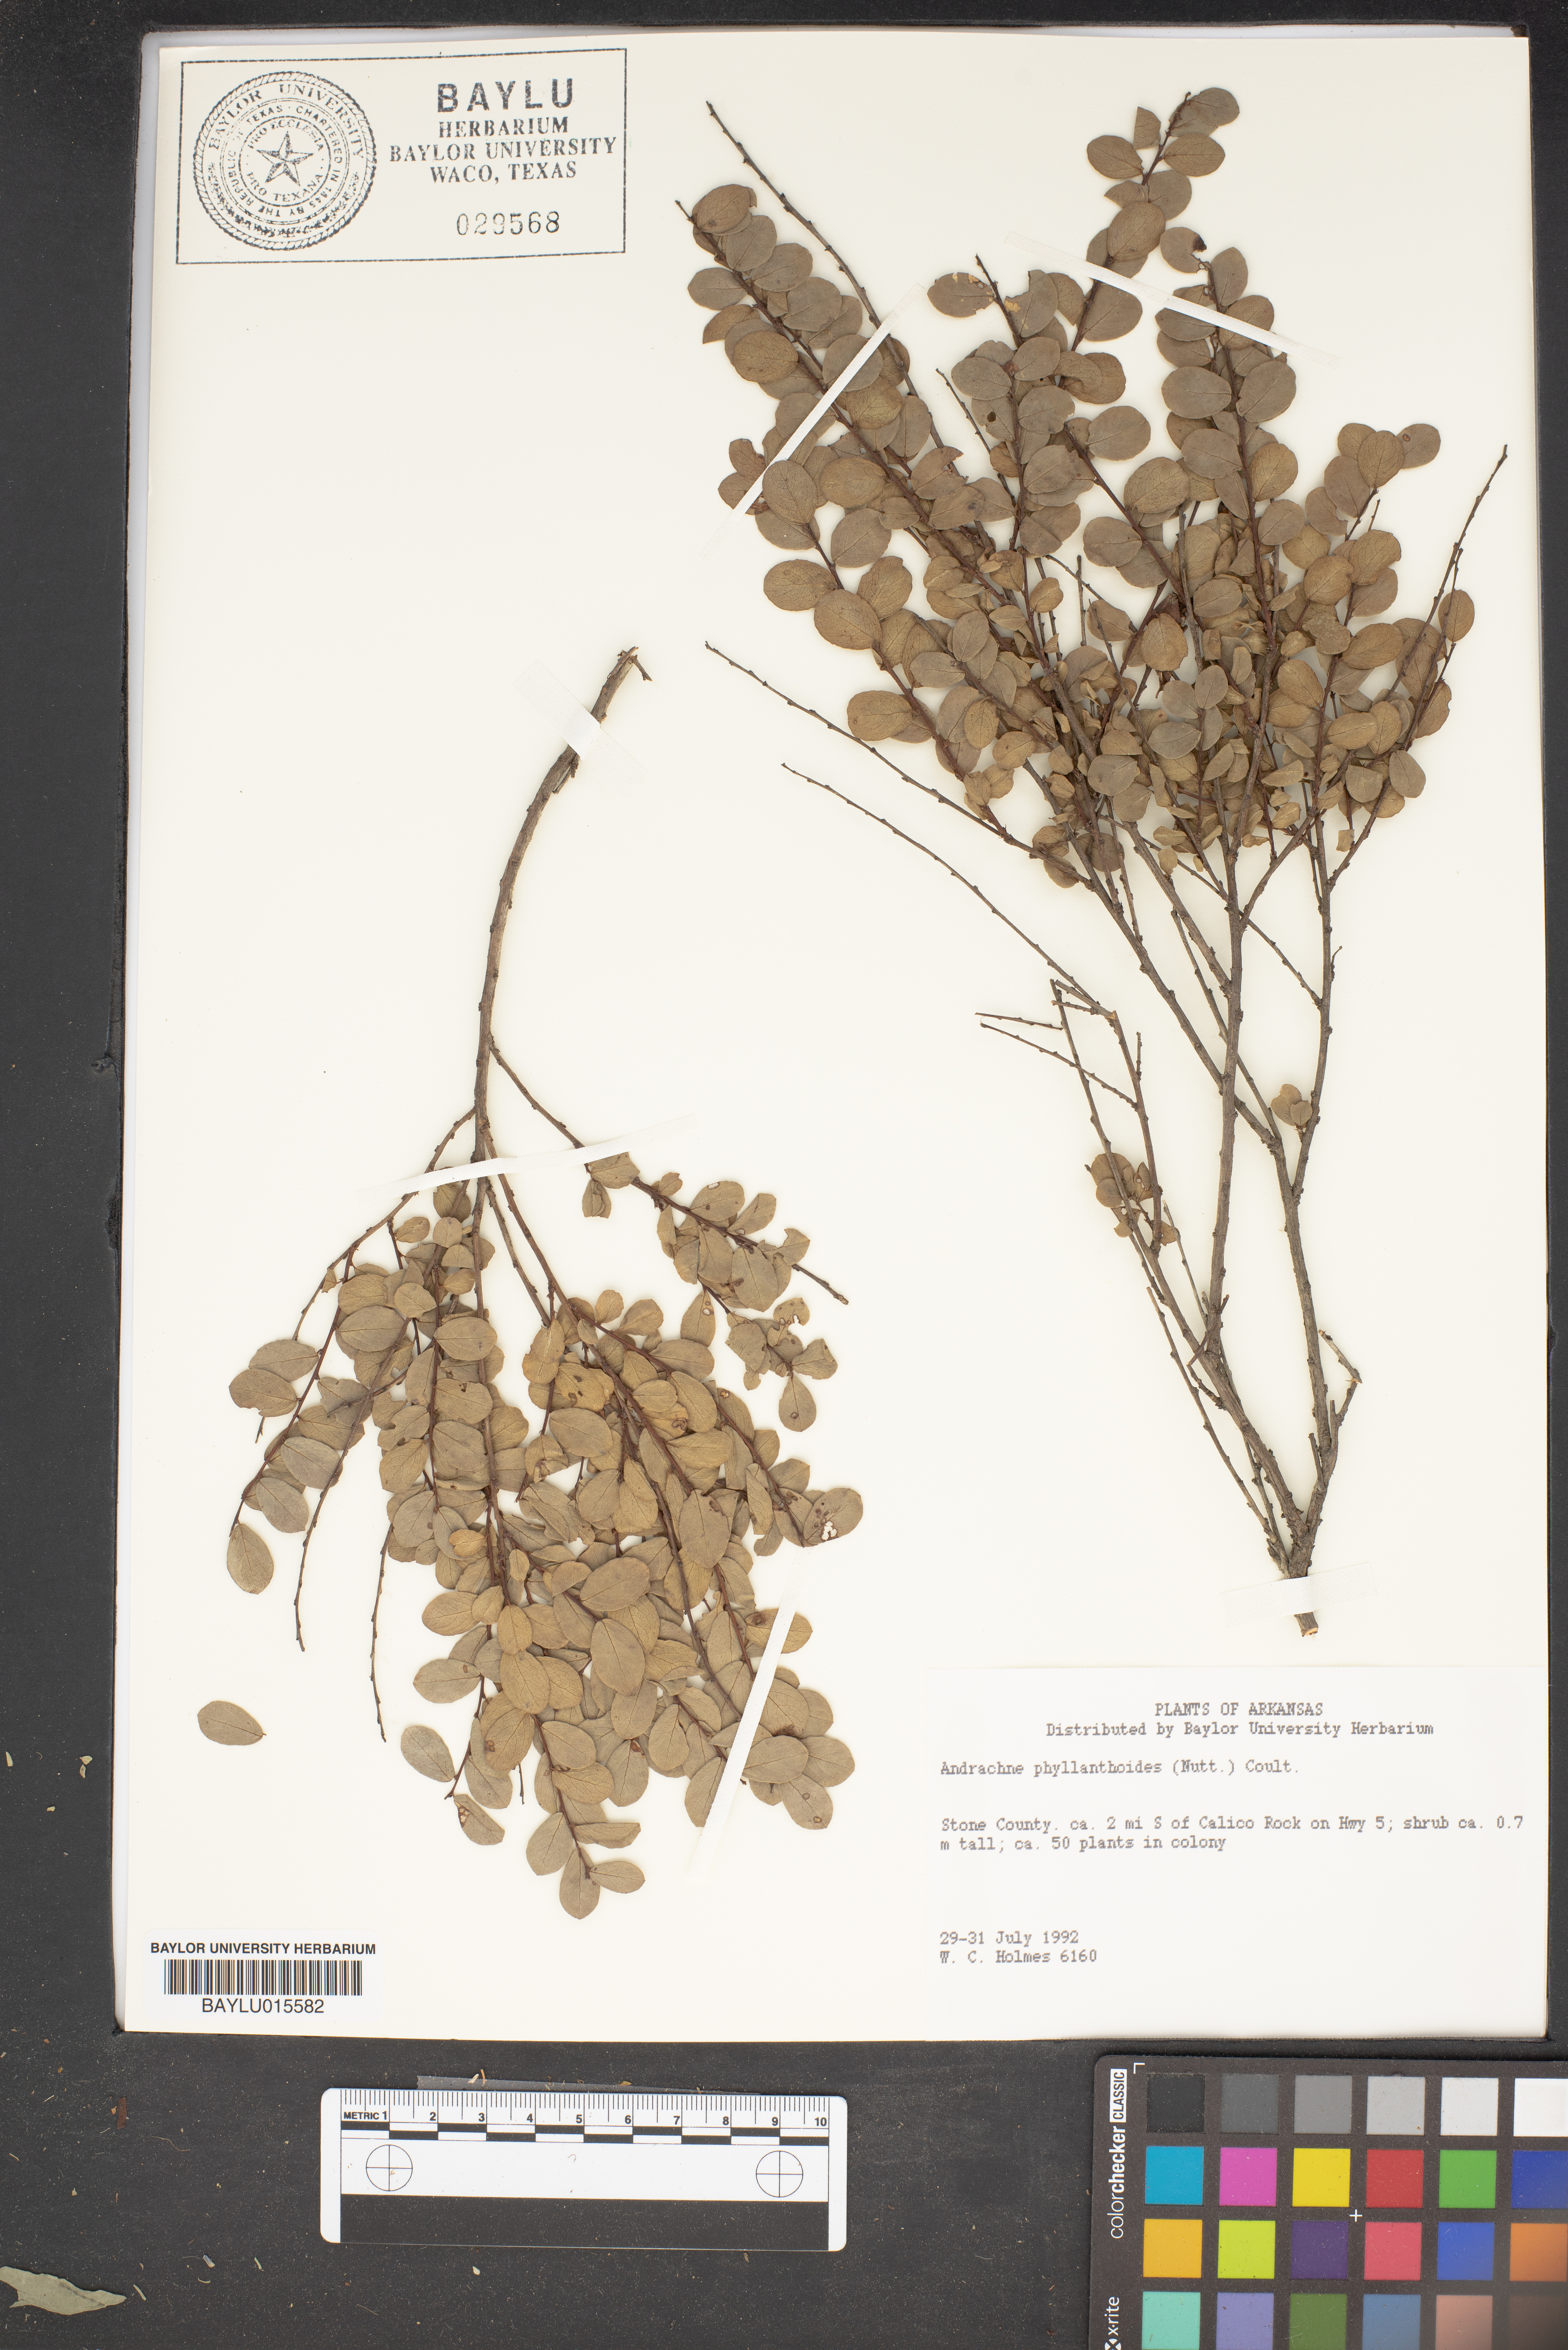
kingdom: Plantae
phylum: Tracheophyta
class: Magnoliopsida
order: Malpighiales
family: Phyllanthaceae
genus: Phyllanthopsis
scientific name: Phyllanthopsis phyllanthoides
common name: Missouri maidenbush
